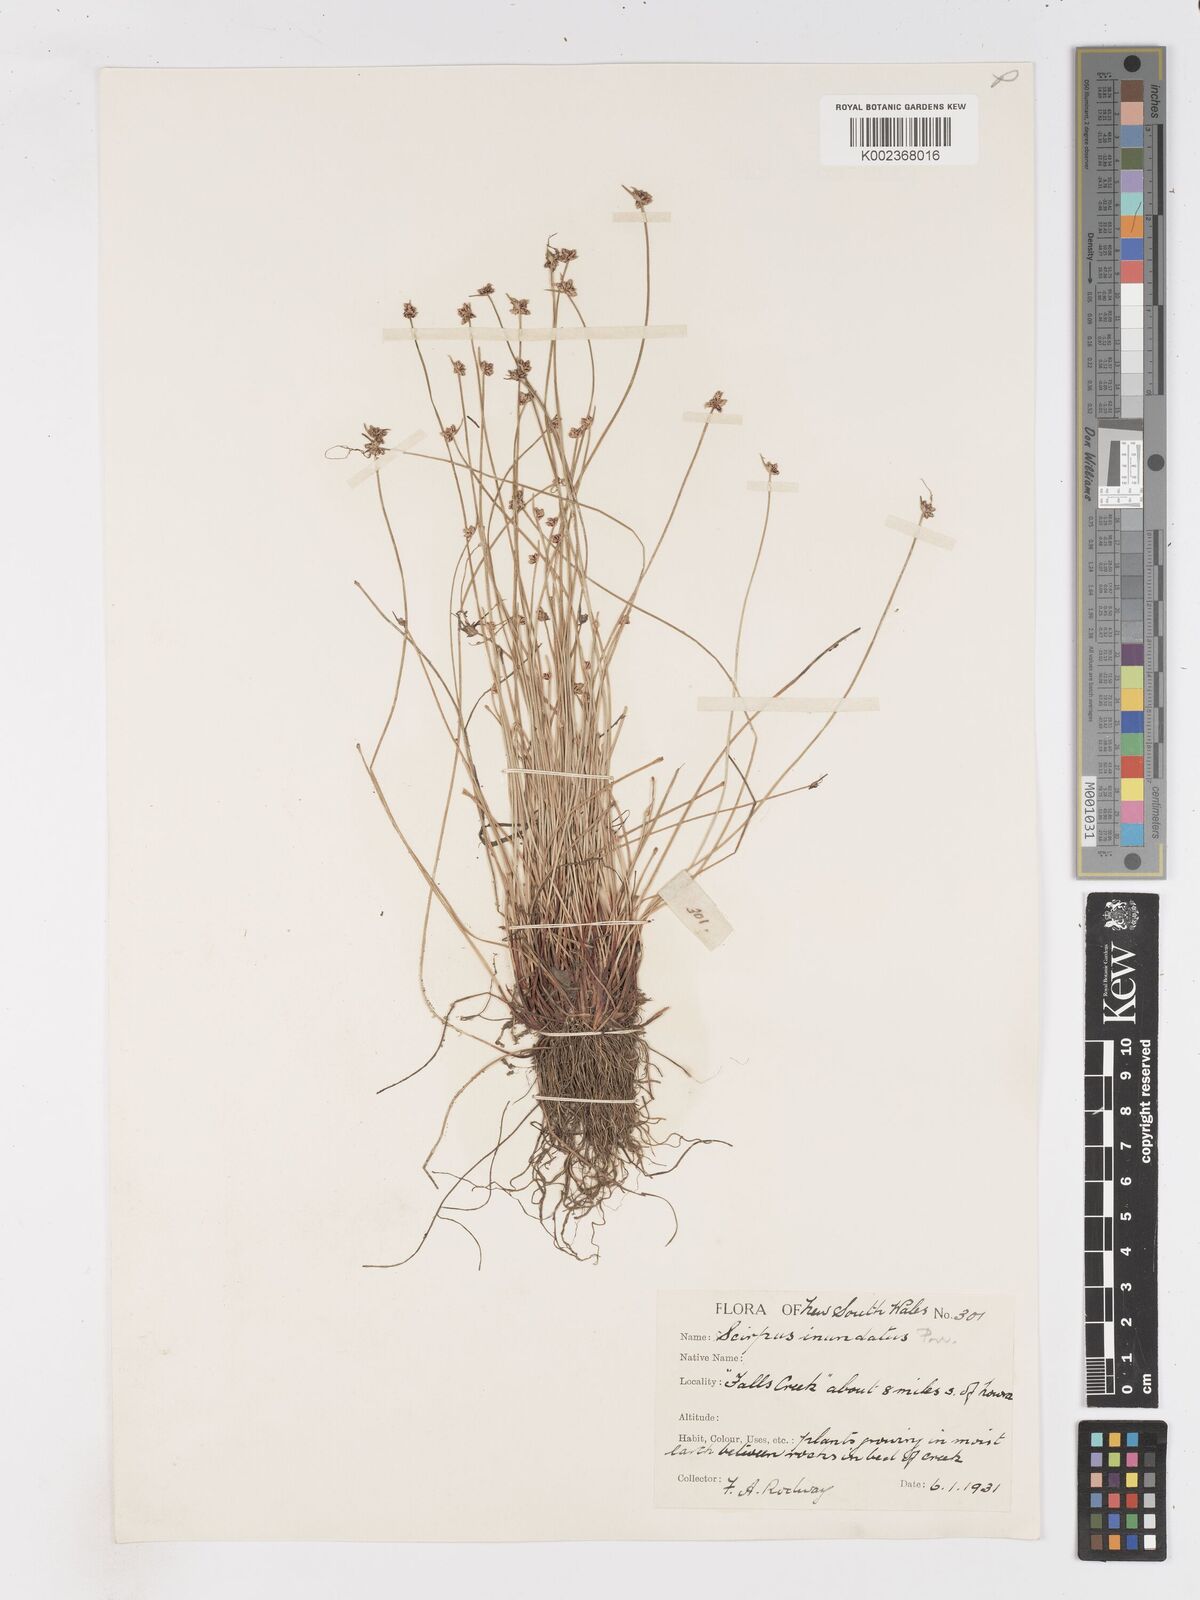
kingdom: Plantae
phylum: Tracheophyta
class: Liliopsida
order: Poales
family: Cyperaceae
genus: Isolepis
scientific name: Isolepis inundata
